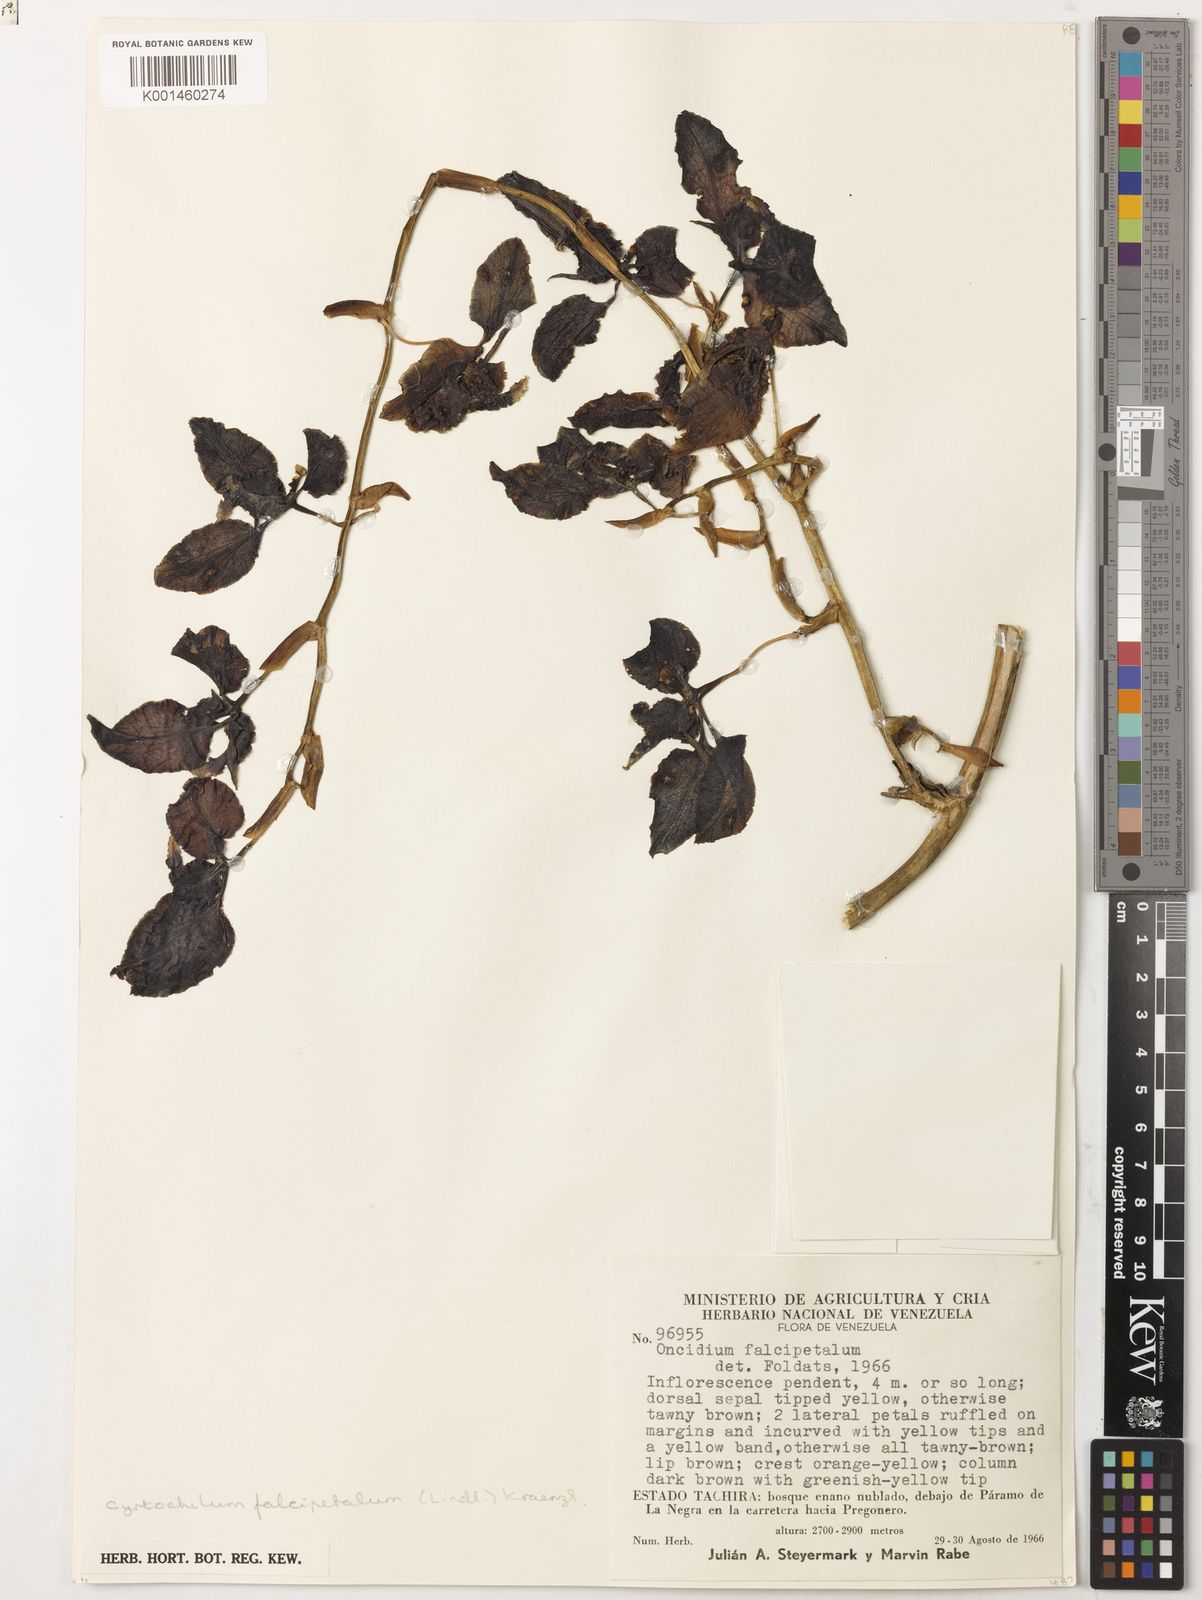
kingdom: Plantae
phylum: Tracheophyta
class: Liliopsida
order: Asparagales
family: Orchidaceae
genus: Cyrtochilum
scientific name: Cyrtochilum falcipetalum
